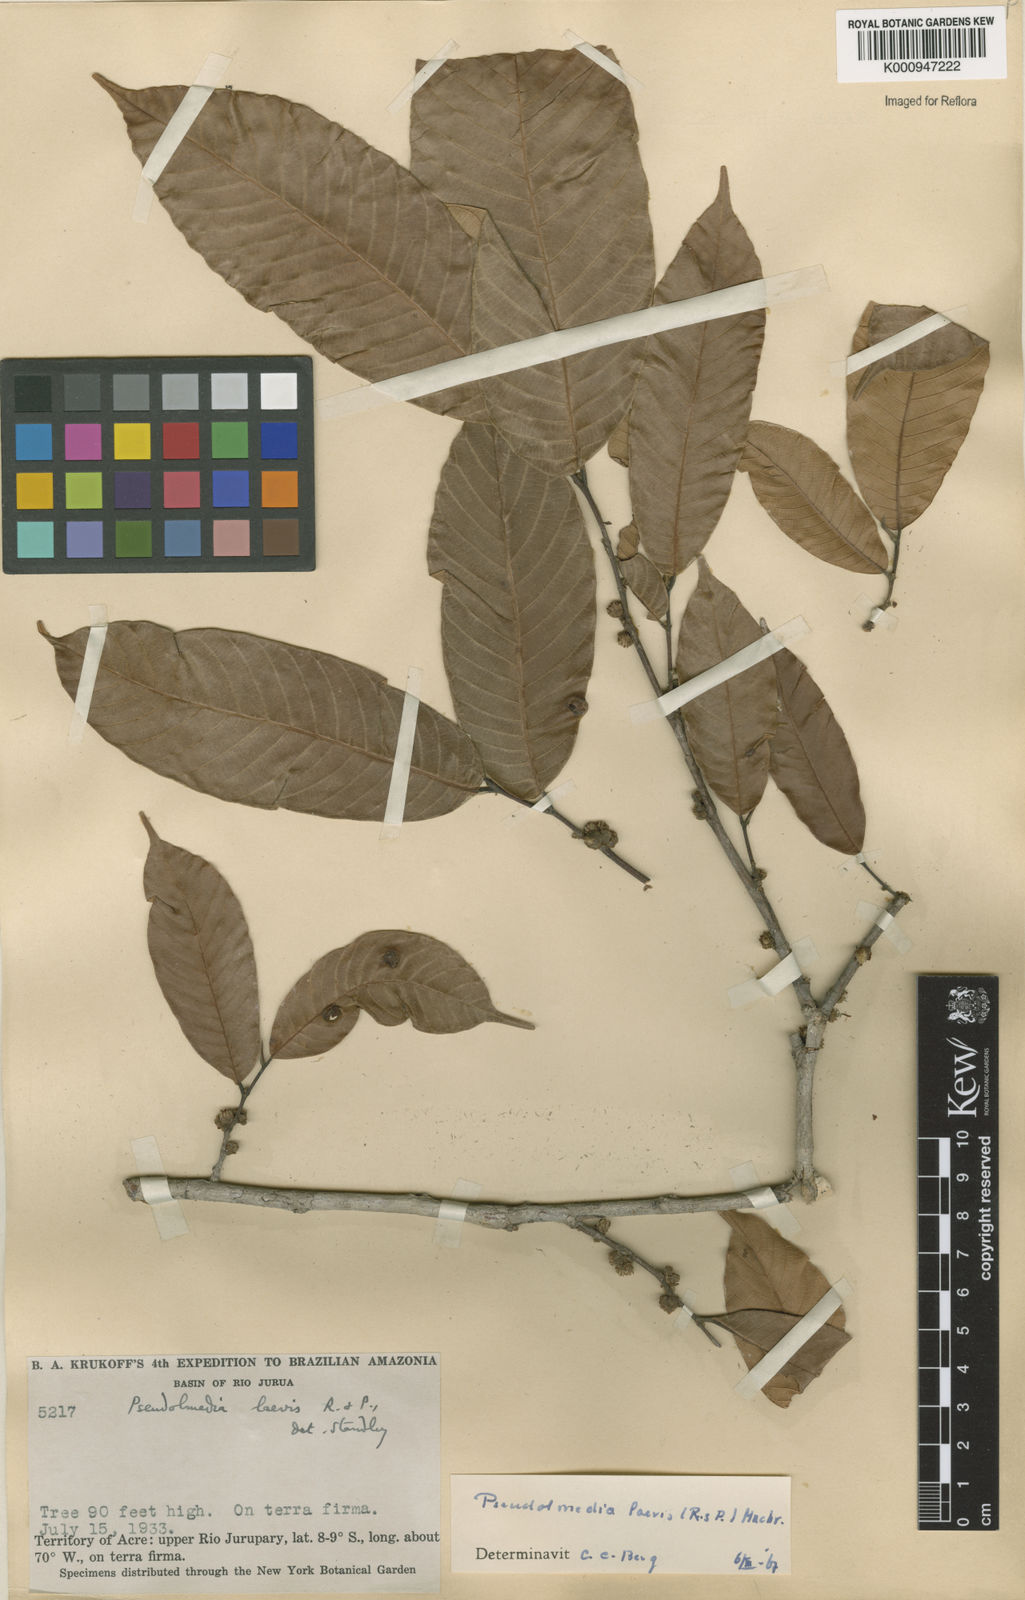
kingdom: Plantae
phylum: Tracheophyta
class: Magnoliopsida
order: Rosales
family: Moraceae
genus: Pseudolmedia
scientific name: Pseudolmedia laevis
